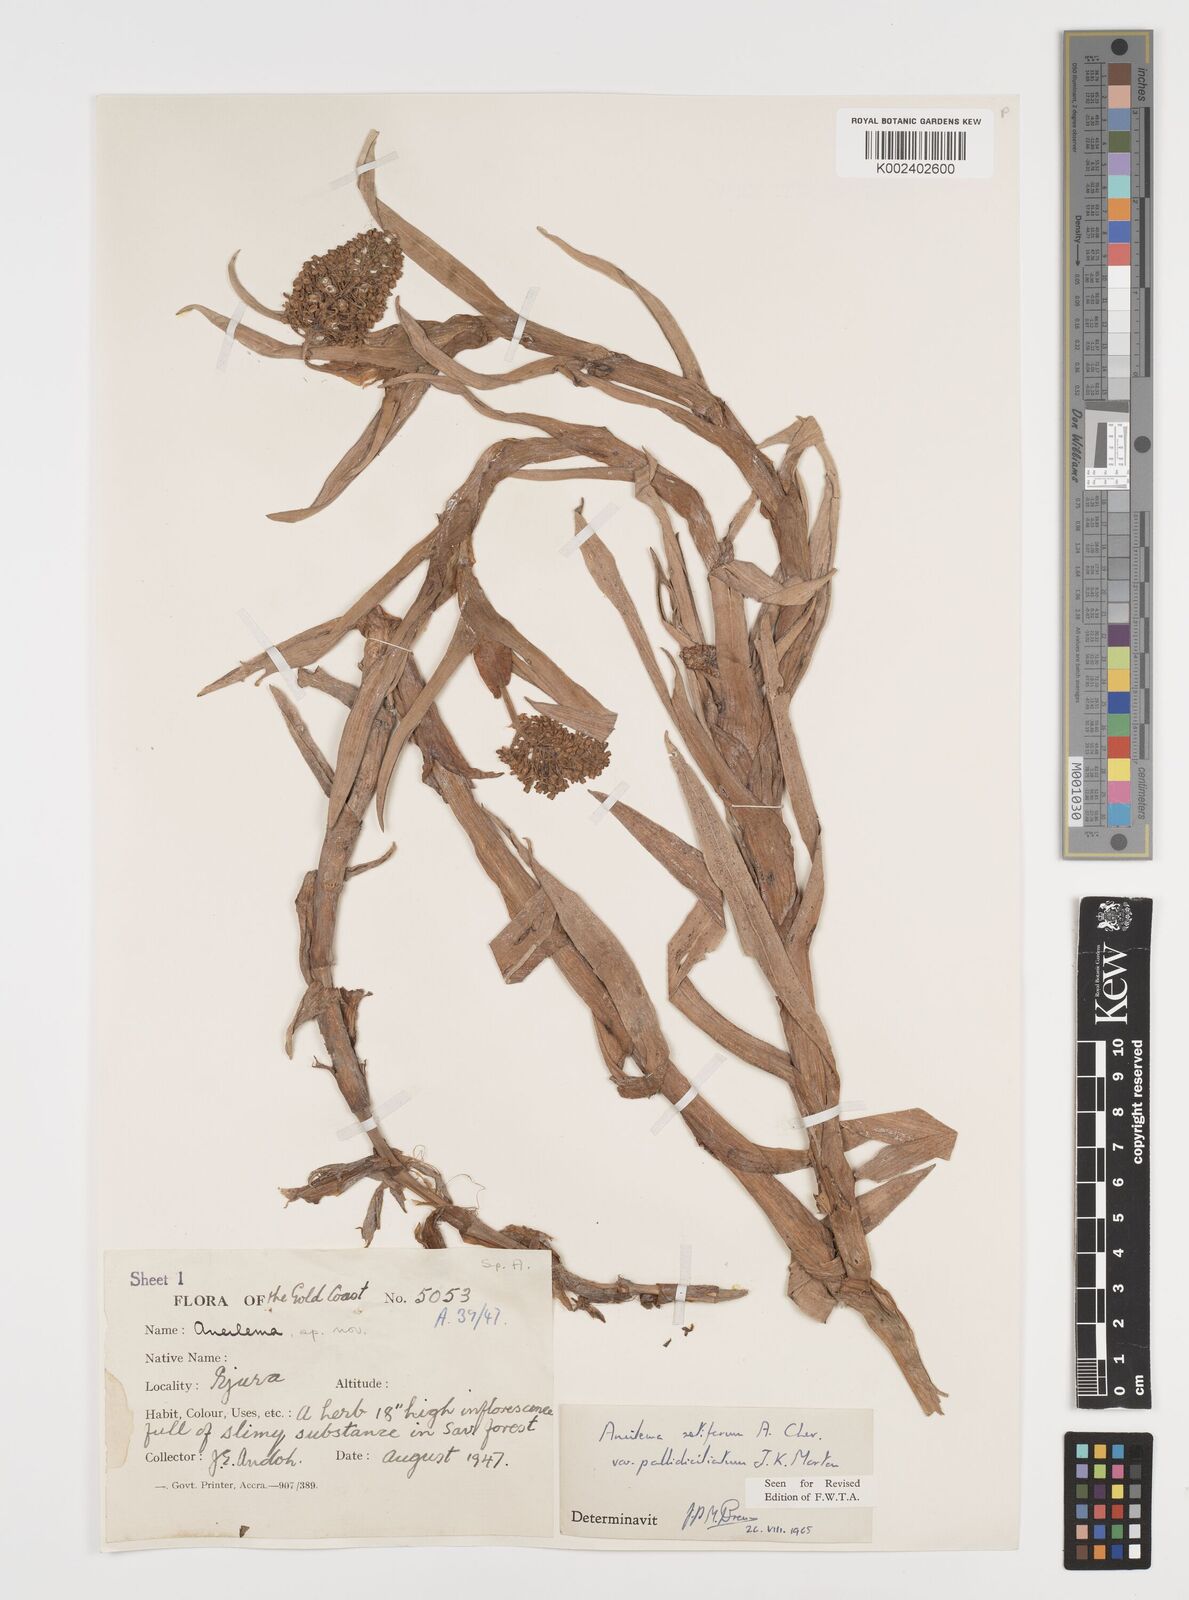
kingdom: Plantae
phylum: Tracheophyta
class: Liliopsida
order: Commelinales
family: Commelinaceae
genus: Aneilema
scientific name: Aneilema setiferum
